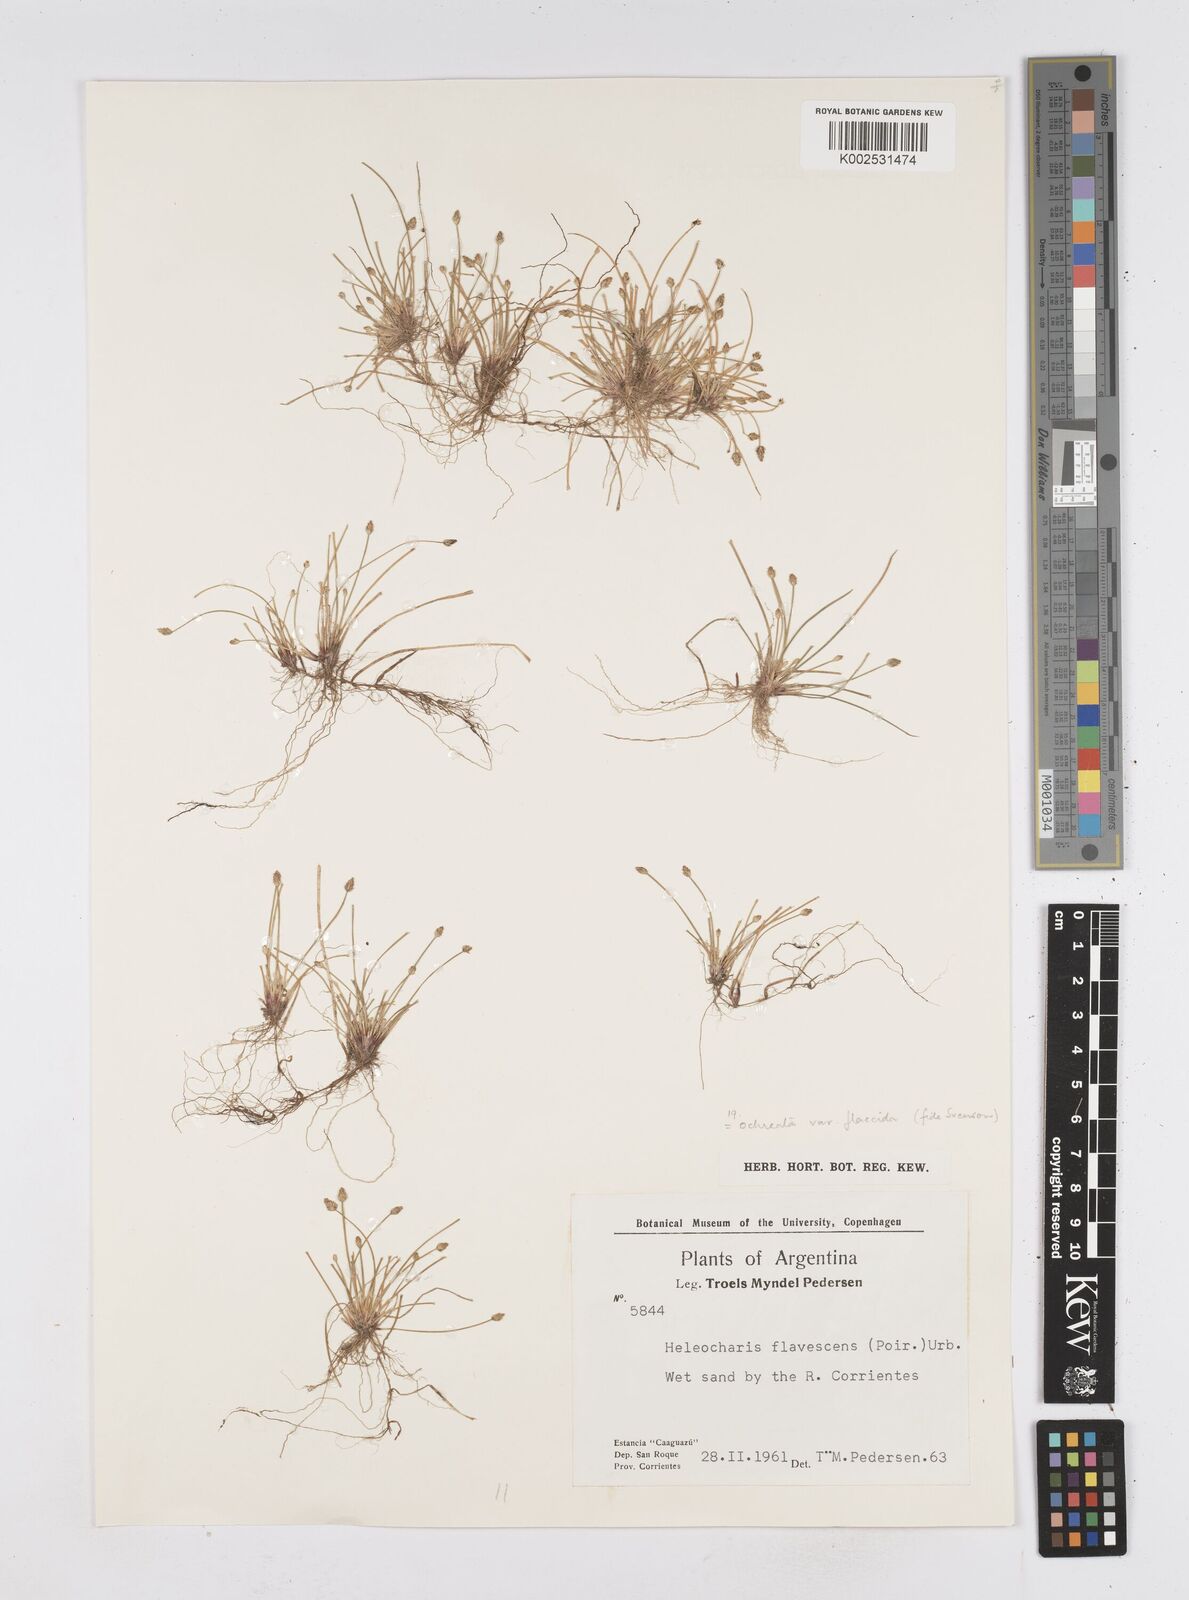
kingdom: Plantae
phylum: Tracheophyta
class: Liliopsida
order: Poales
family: Cyperaceae
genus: Eleocharis
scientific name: Eleocharis flavescens
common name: Yellow spikerush
